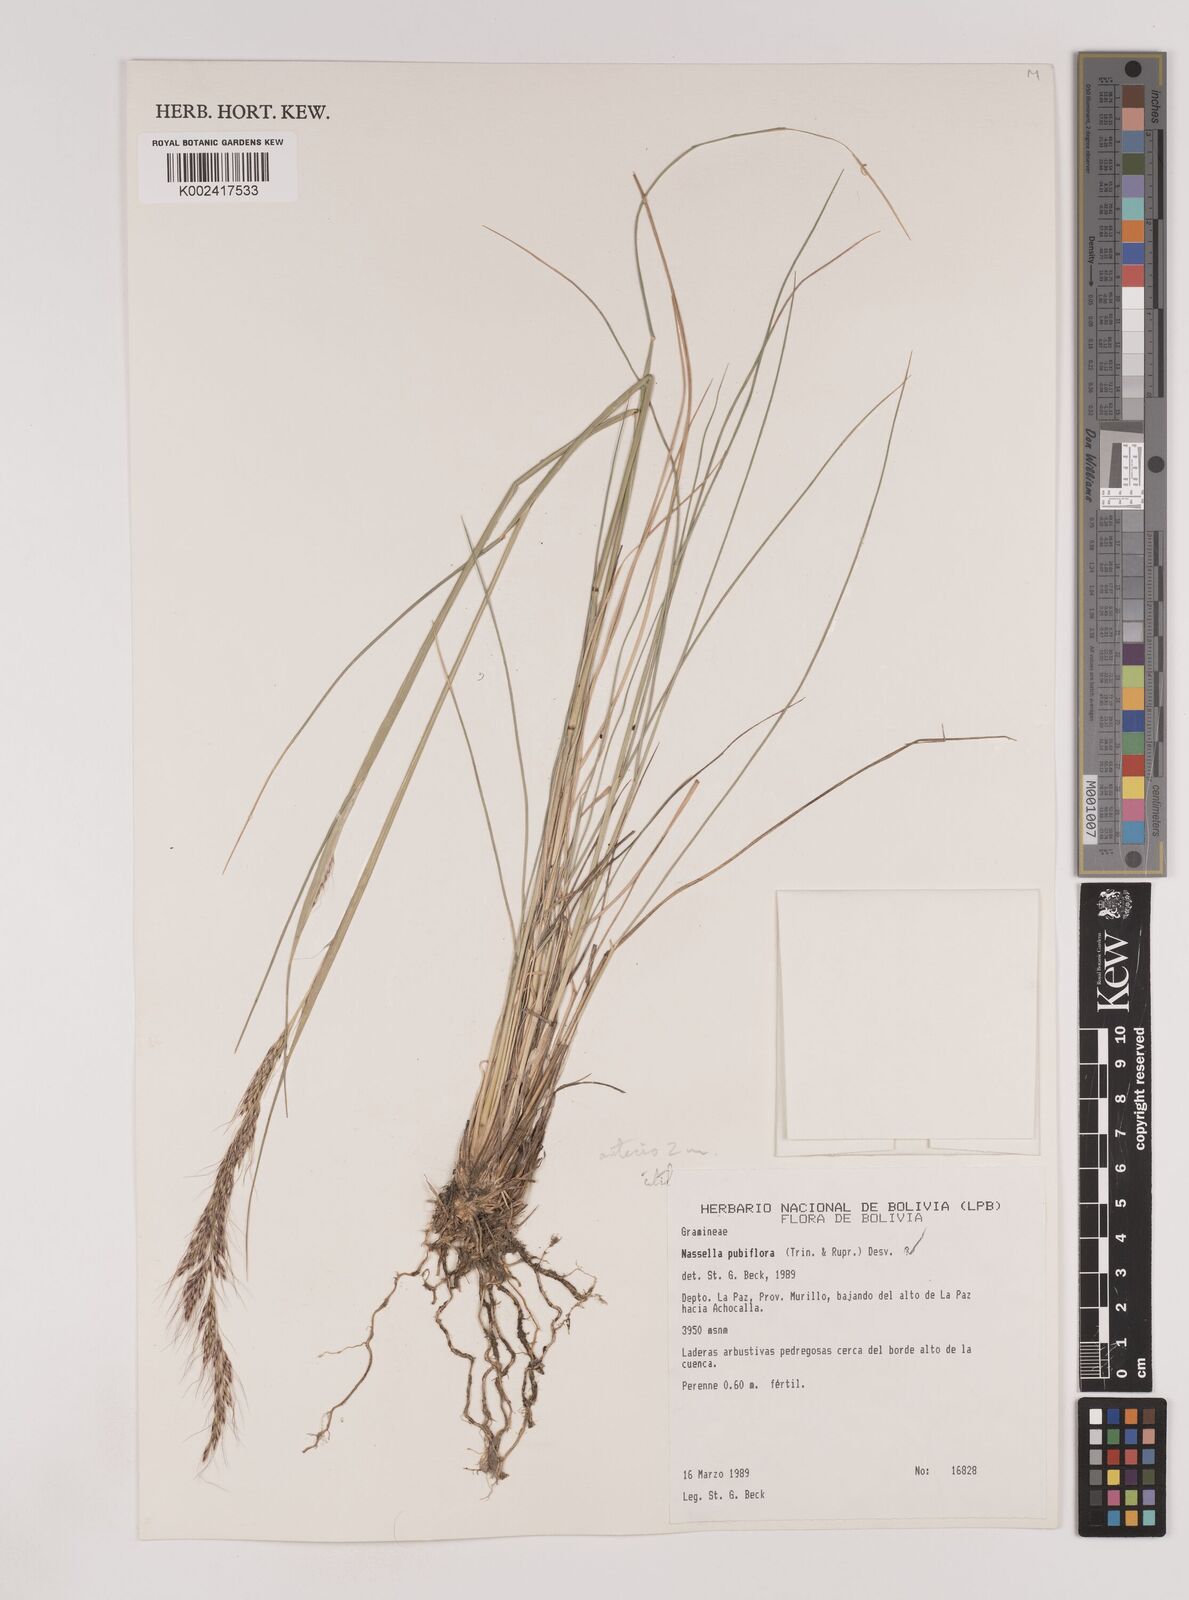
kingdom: Plantae
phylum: Tracheophyta
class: Liliopsida
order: Poales
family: Poaceae
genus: Nassella
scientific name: Nassella pubiflora
